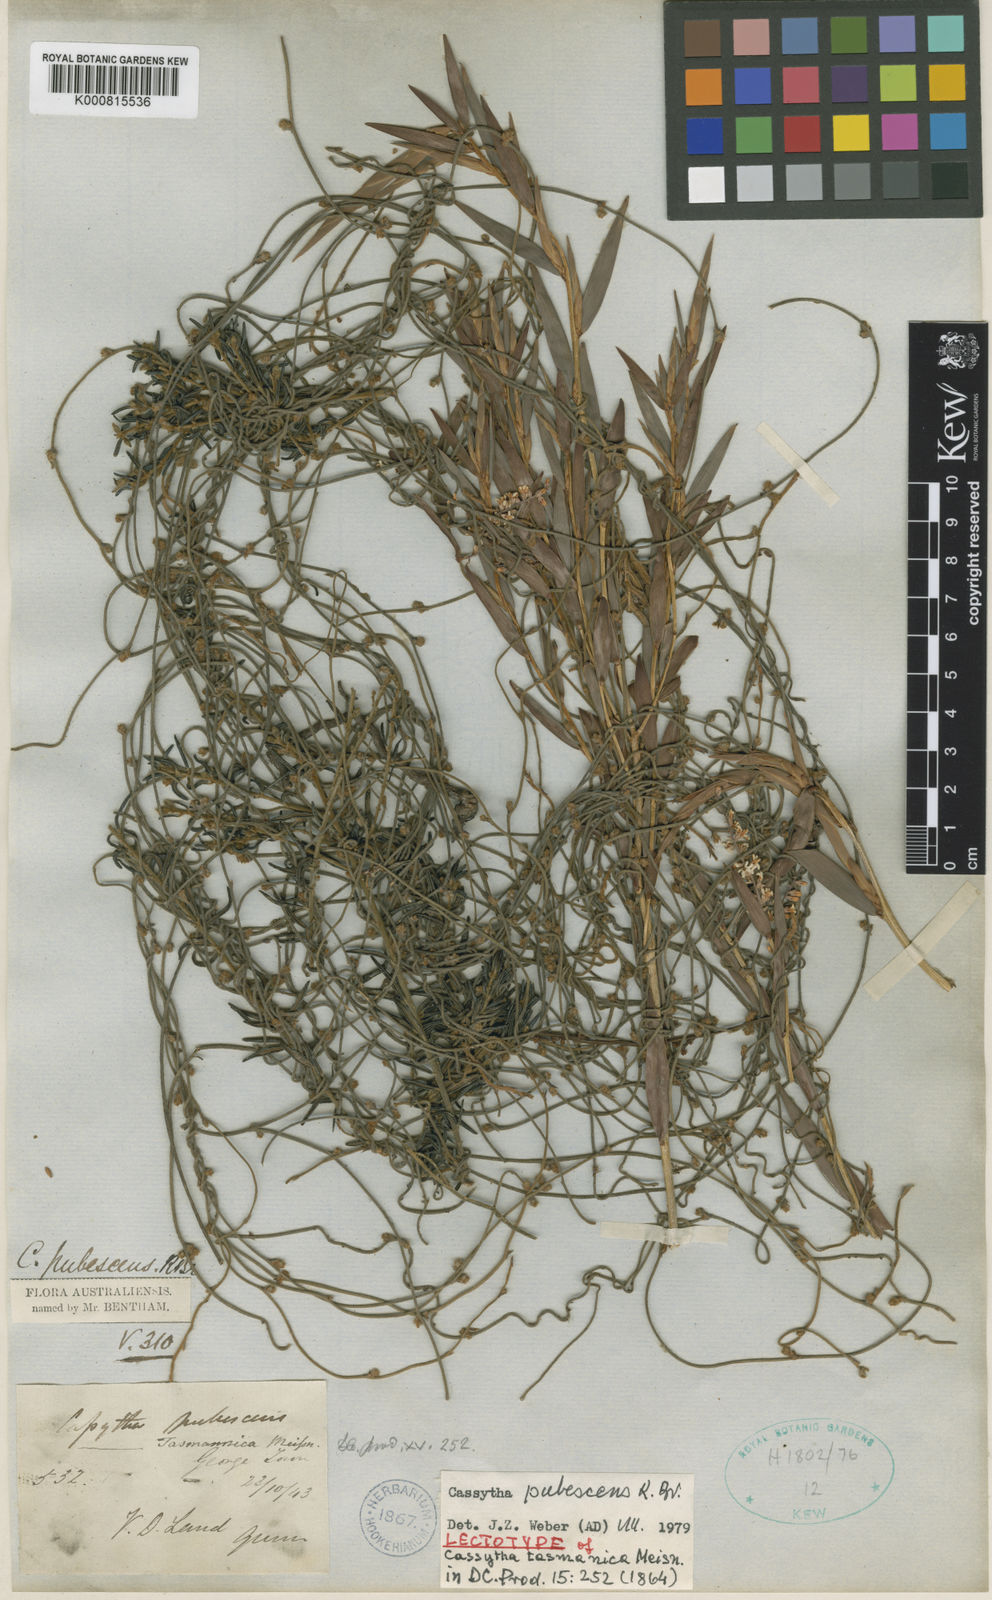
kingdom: Plantae
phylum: Tracheophyta
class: Magnoliopsida
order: Laurales
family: Lauraceae
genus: Cassytha
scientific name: Cassytha pubescens
